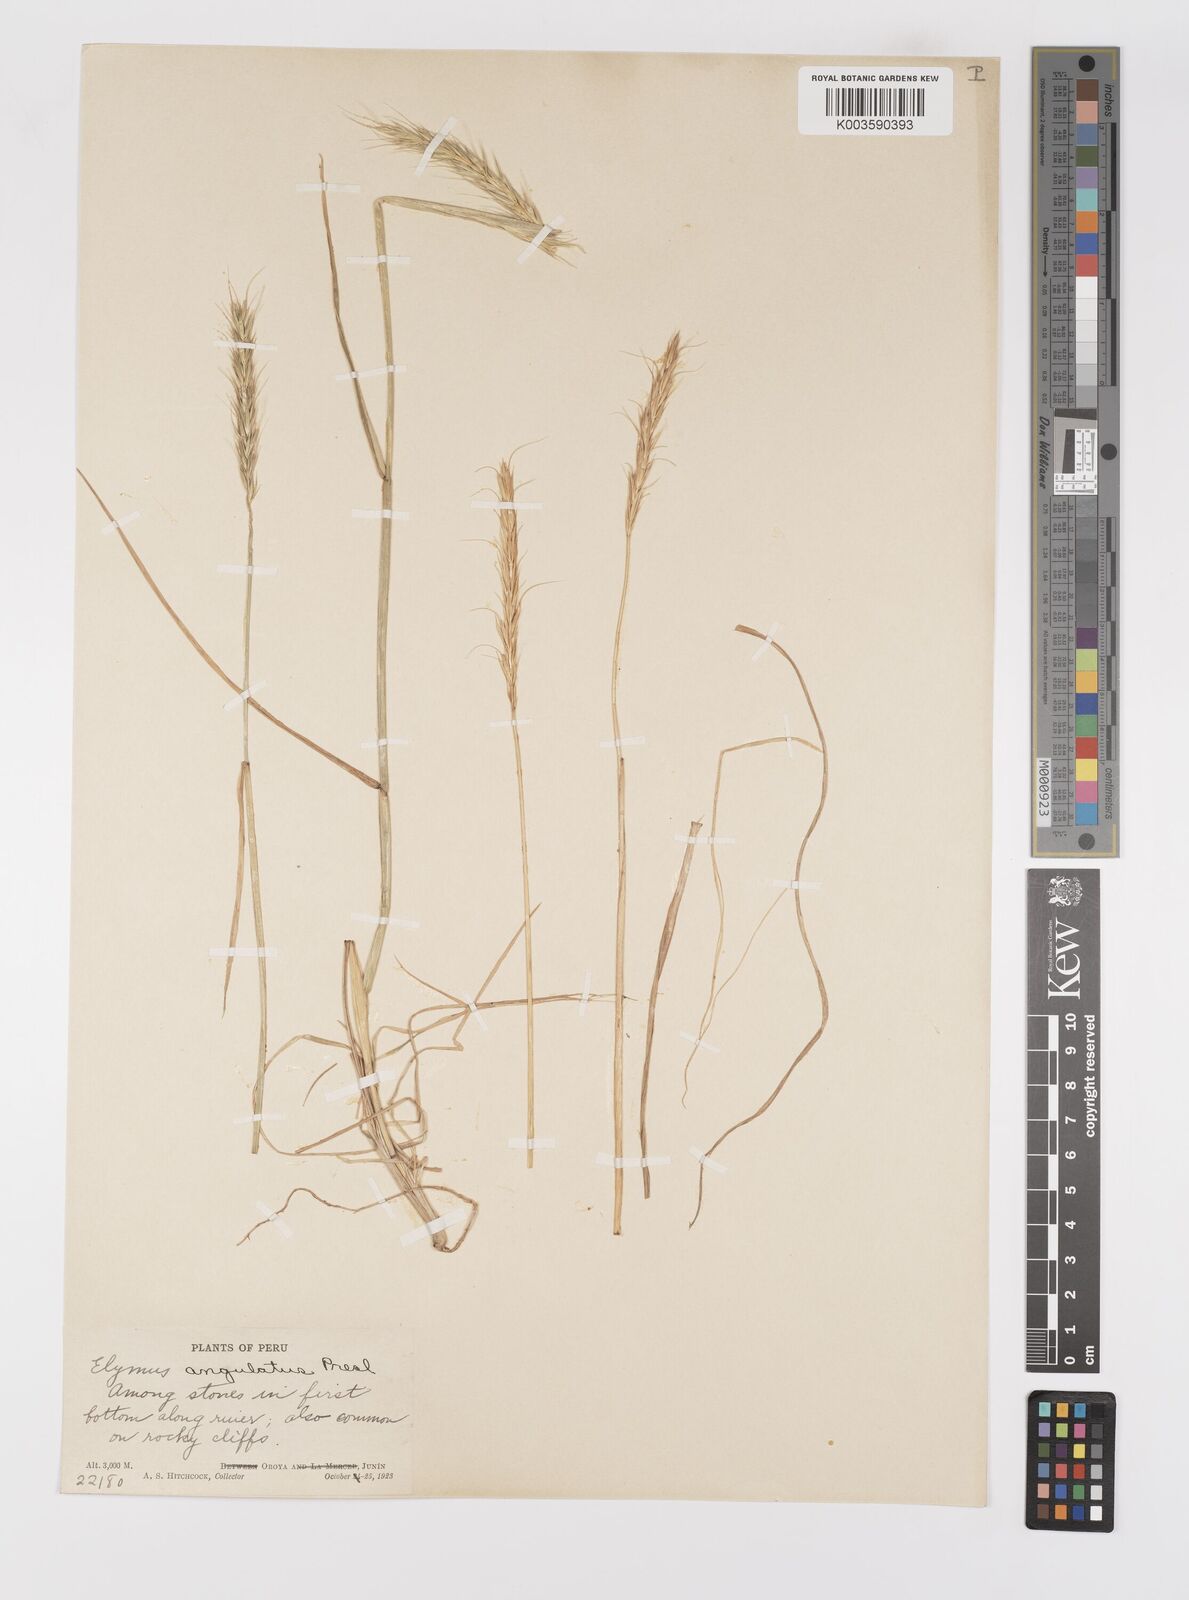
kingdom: Plantae
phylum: Tracheophyta
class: Liliopsida
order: Poales
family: Poaceae
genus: Elymus
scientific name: Elymus angulatus
